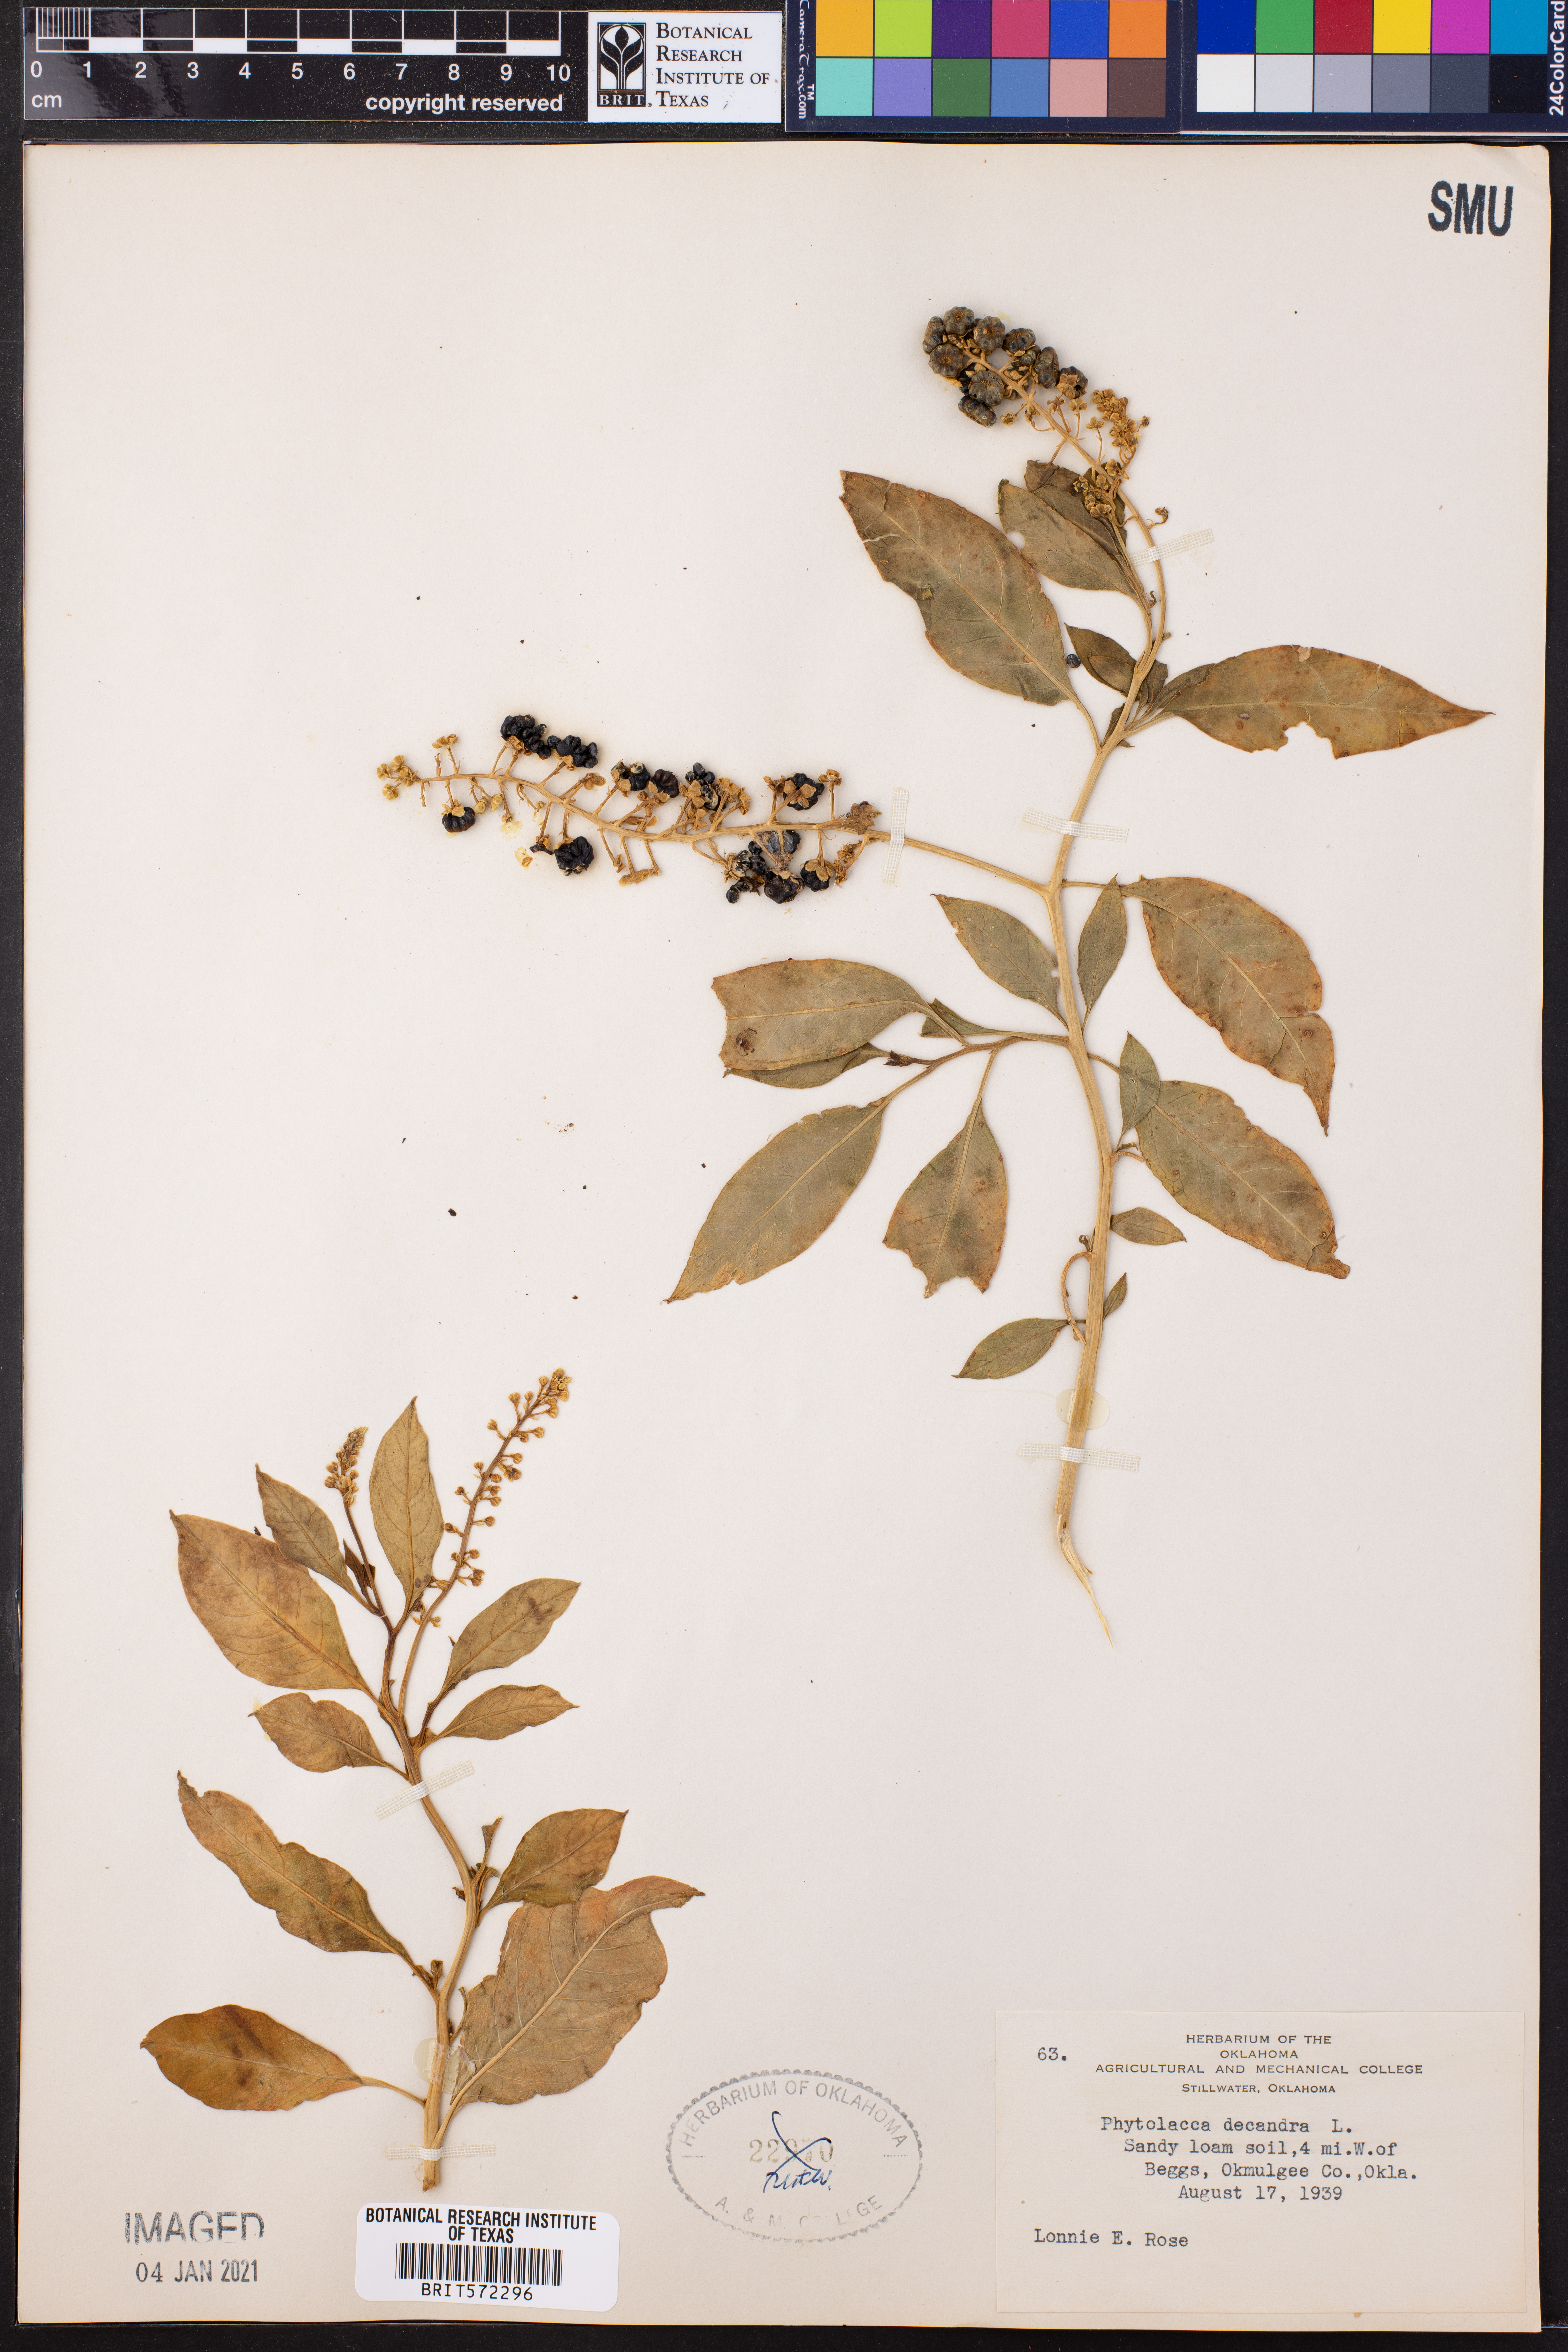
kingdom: Plantae
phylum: Tracheophyta
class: Magnoliopsida
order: Caryophyllales
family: Phytolaccaceae
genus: Phytolacca
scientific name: Phytolacca americana
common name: American pokeweed
